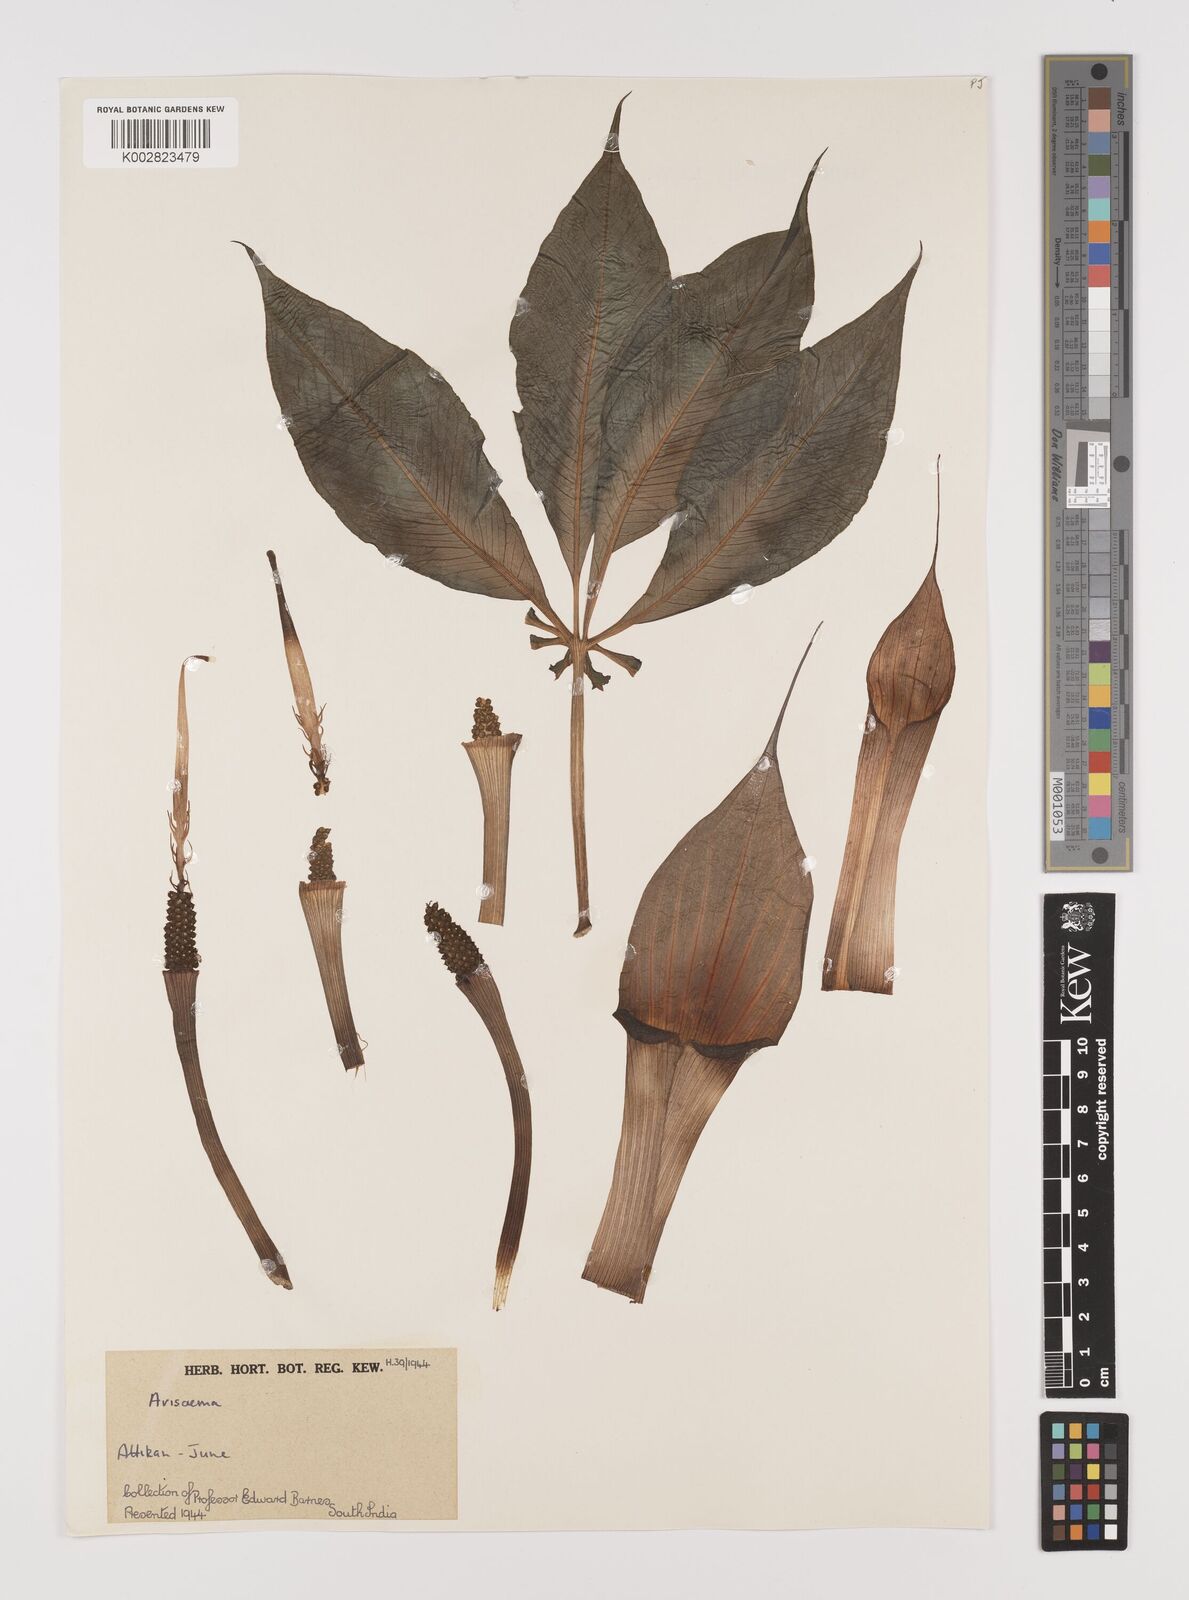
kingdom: Plantae
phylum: Tracheophyta
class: Liliopsida
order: Alismatales
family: Araceae
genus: Arisaema
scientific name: Arisaema
